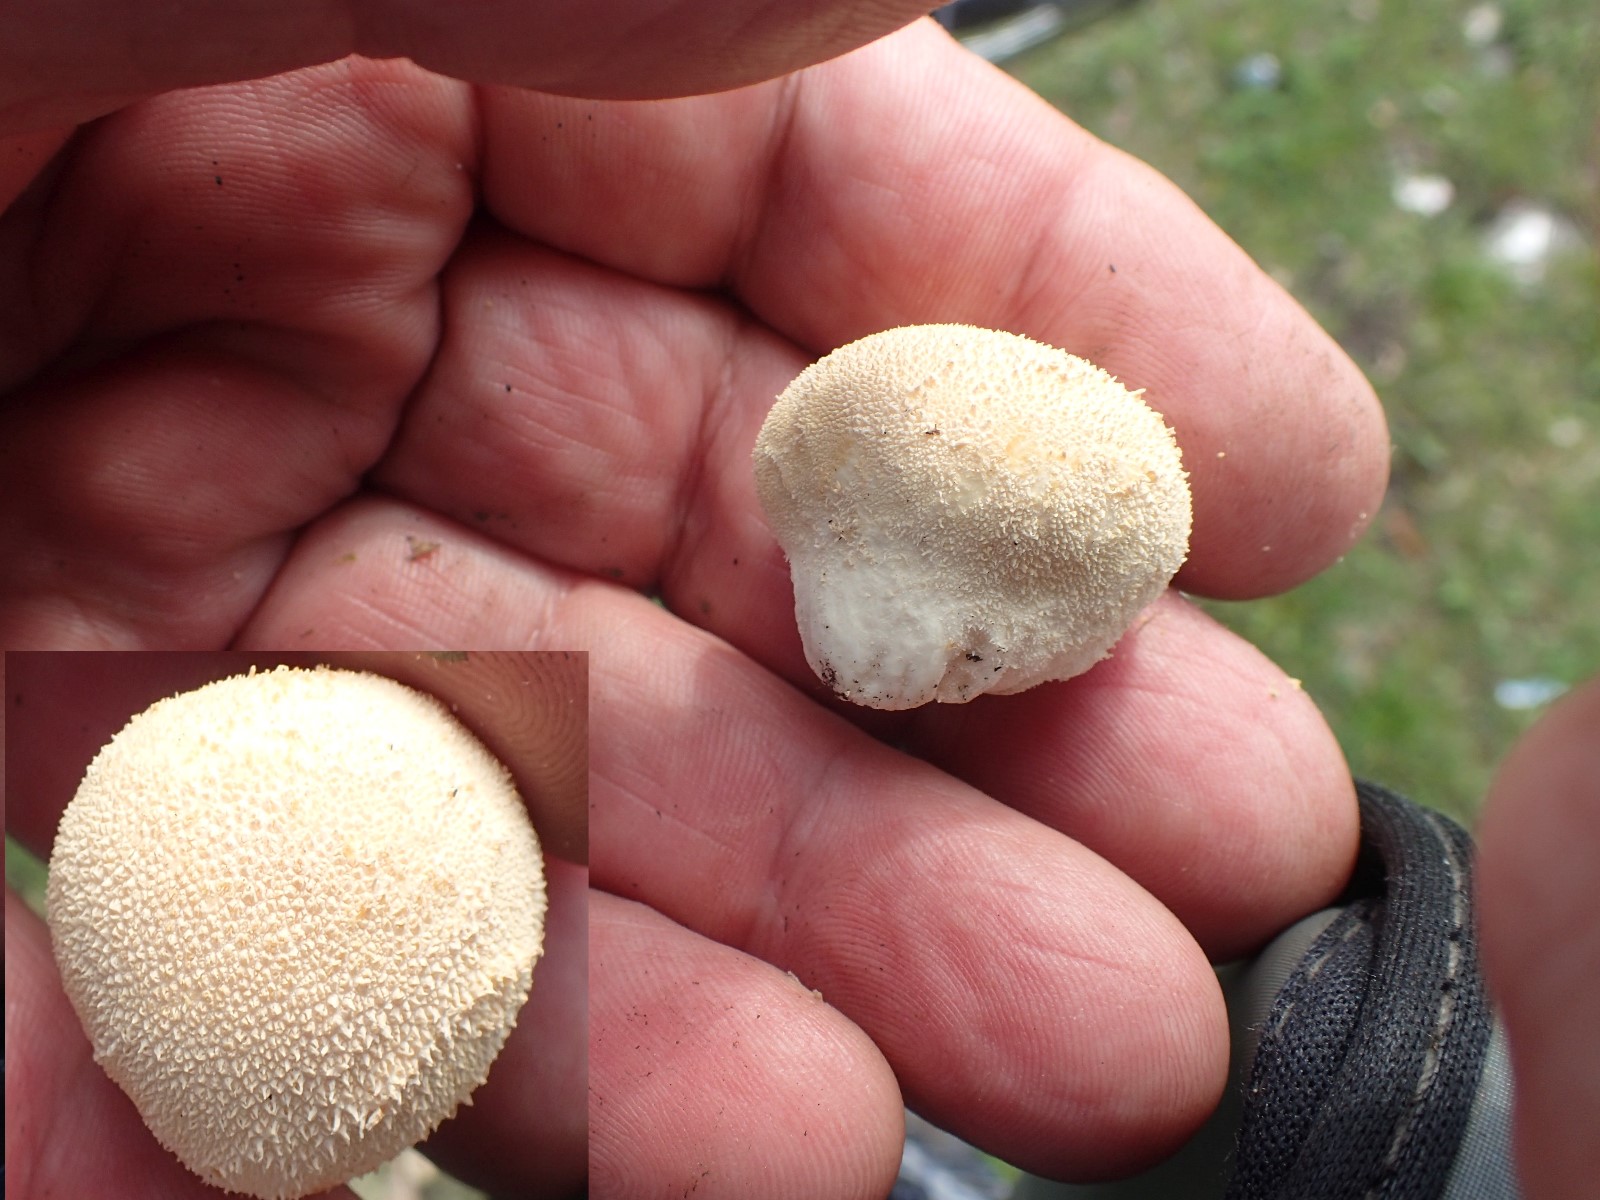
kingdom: Fungi
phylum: Basidiomycota
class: Agaricomycetes
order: Agaricales
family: Lycoperdaceae
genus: Lycoperdon
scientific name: Lycoperdon pratense
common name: flad støvbold
